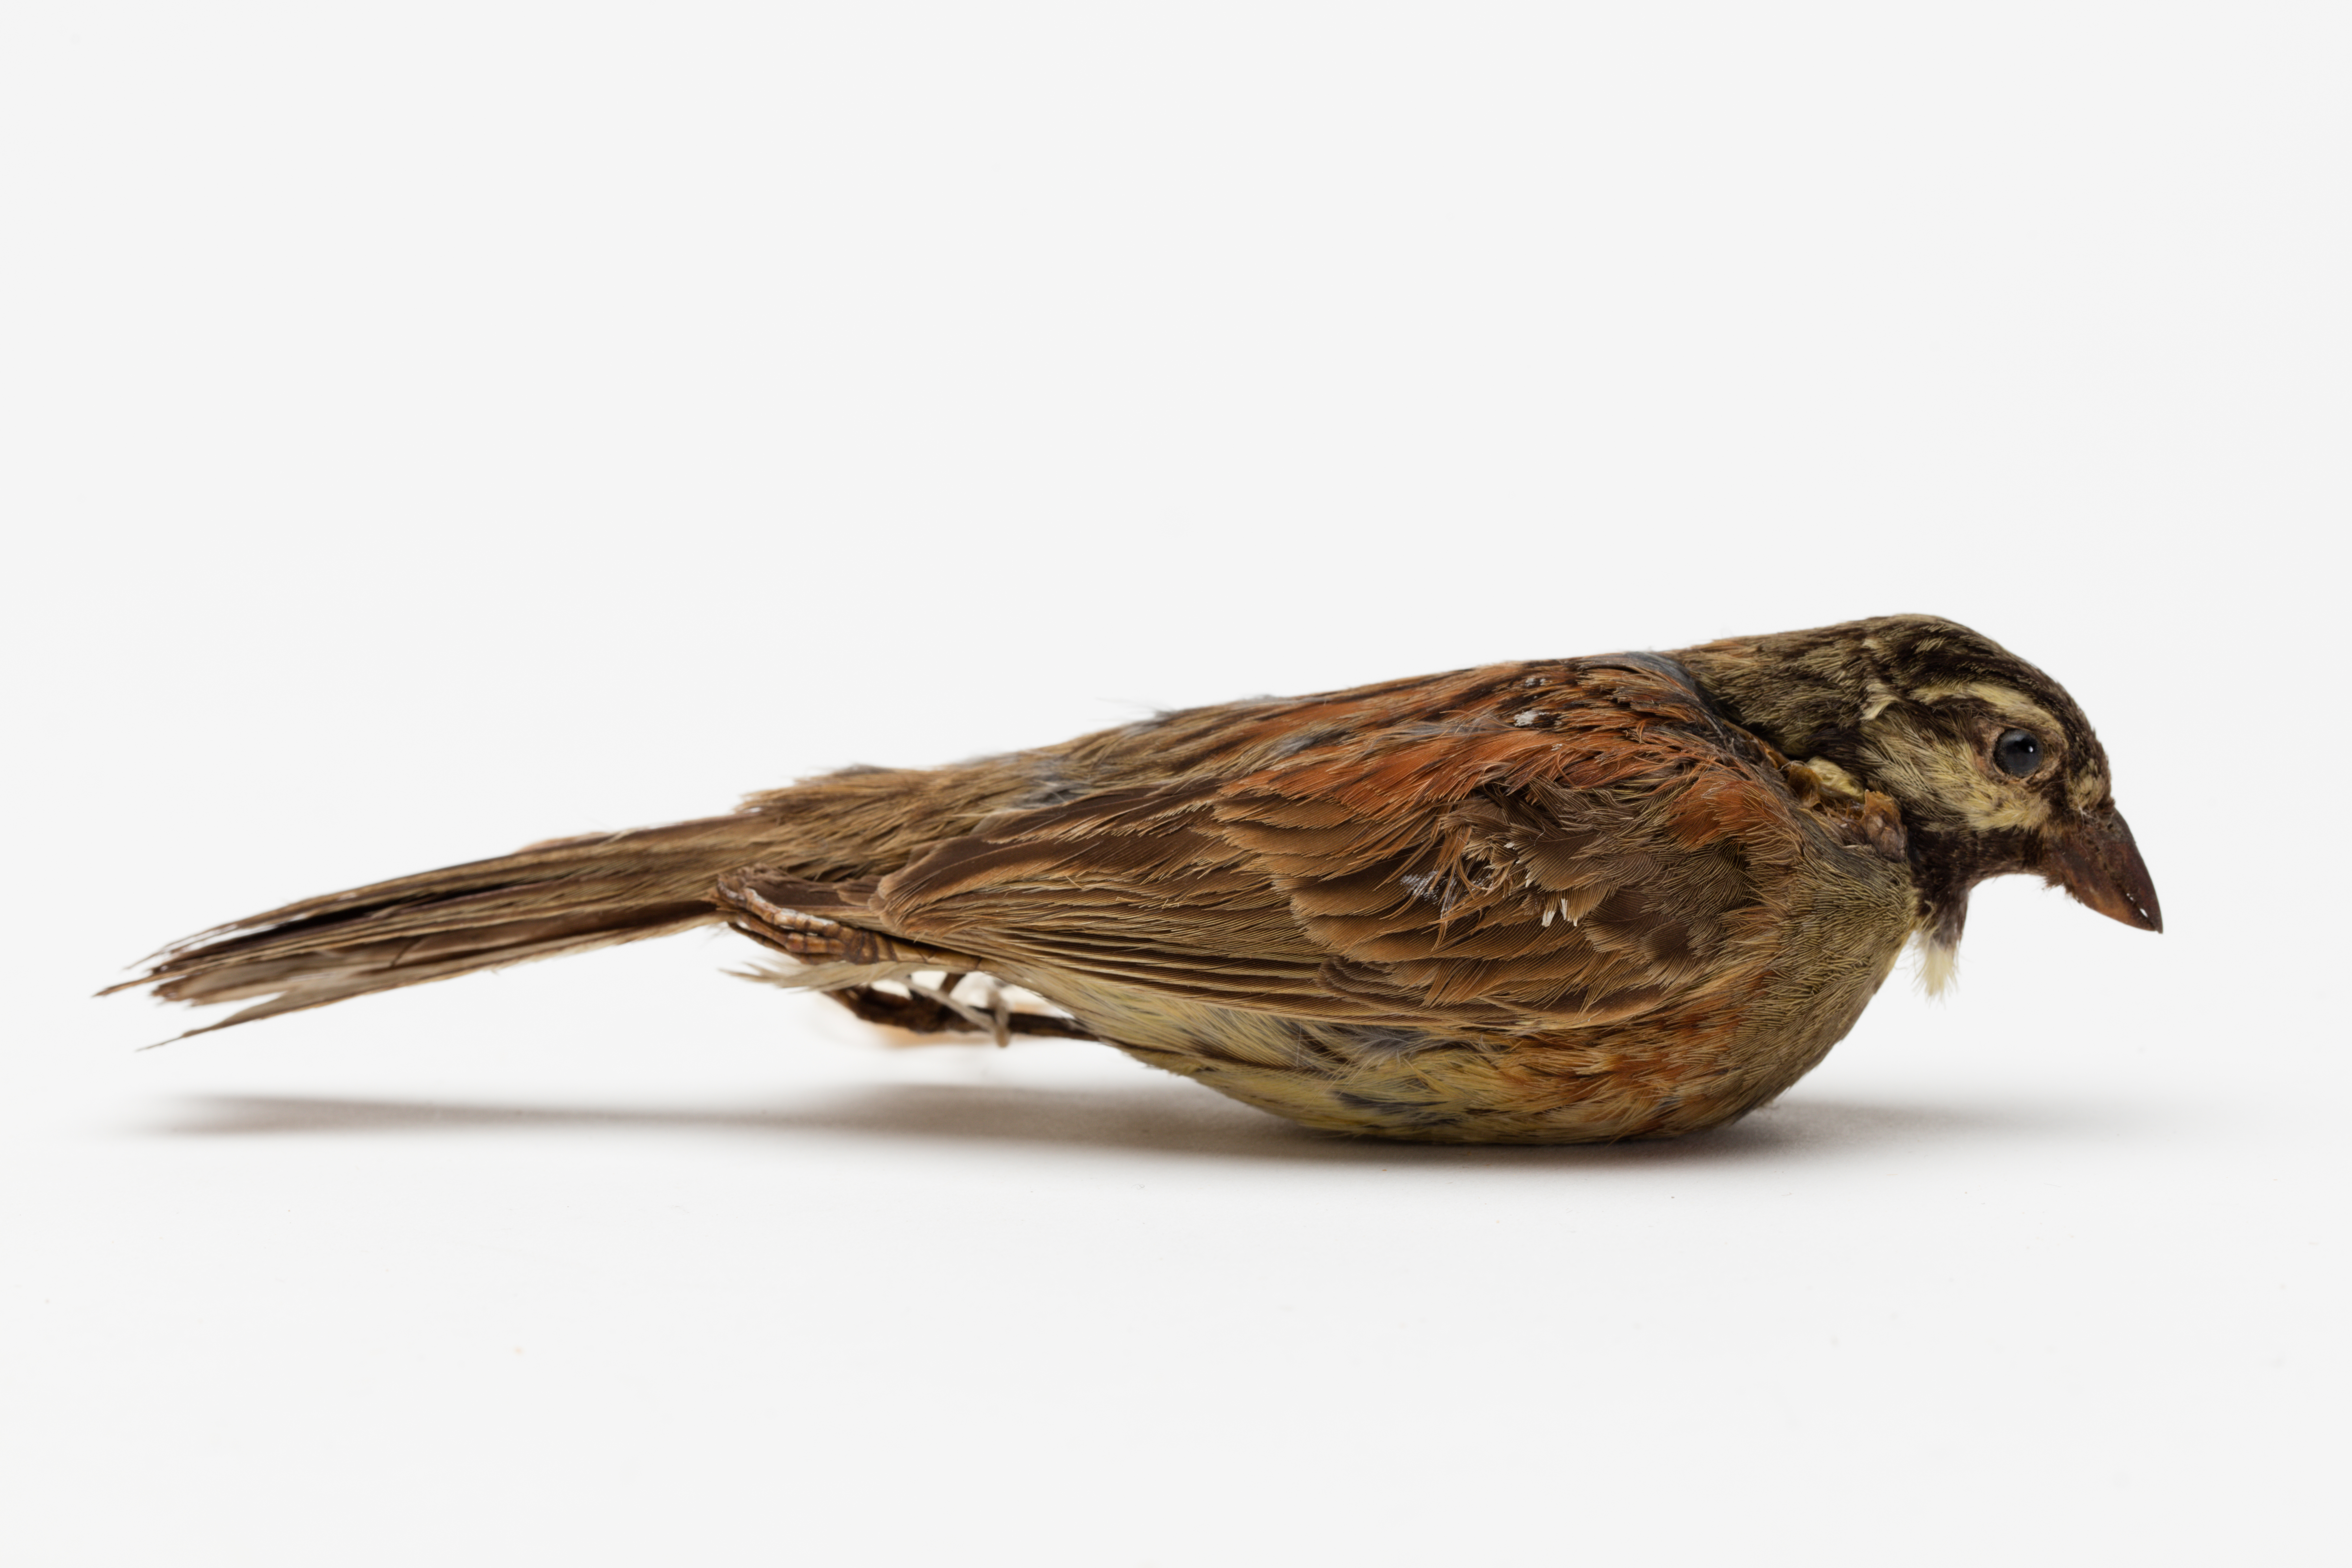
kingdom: Animalia
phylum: Chordata
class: Aves
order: Passeriformes
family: Emberizidae
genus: Emberiza
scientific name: Emberiza cirlus
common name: Cirl bunting
